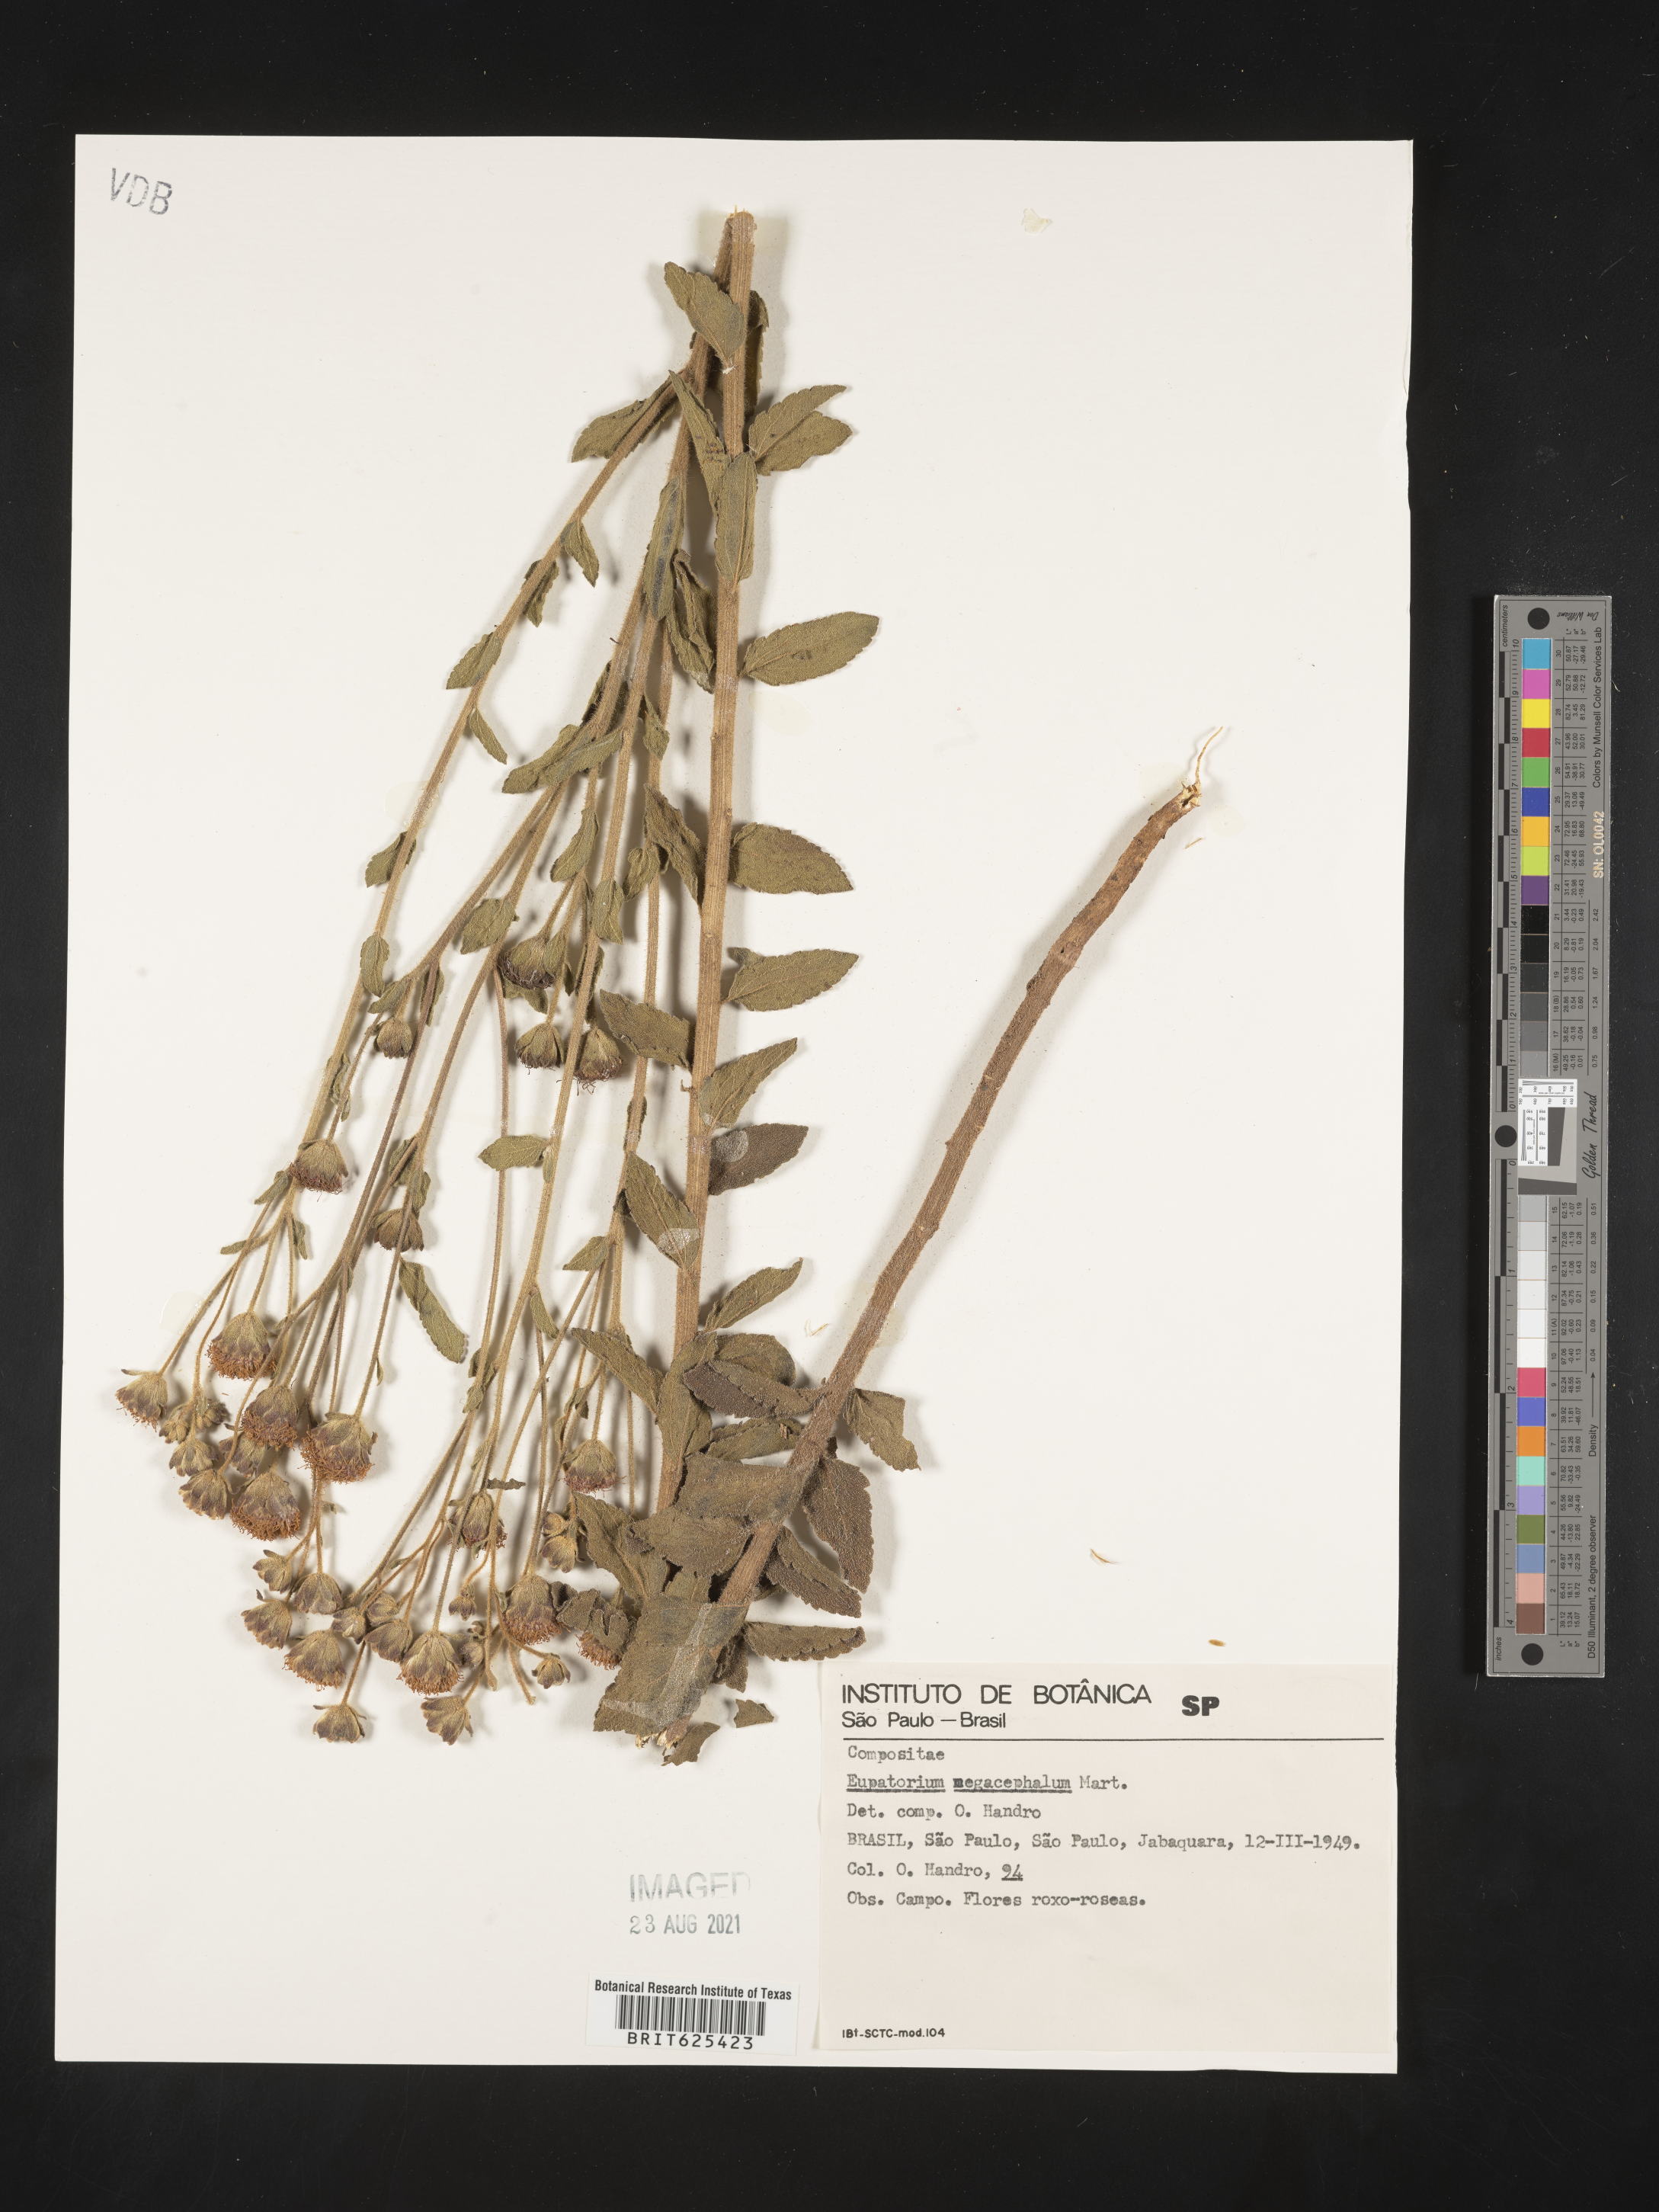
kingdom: Plantae
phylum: Tracheophyta
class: Magnoliopsida
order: Asterales
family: Asteraceae
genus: Campuloclinium
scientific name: Campuloclinium megacephalum
